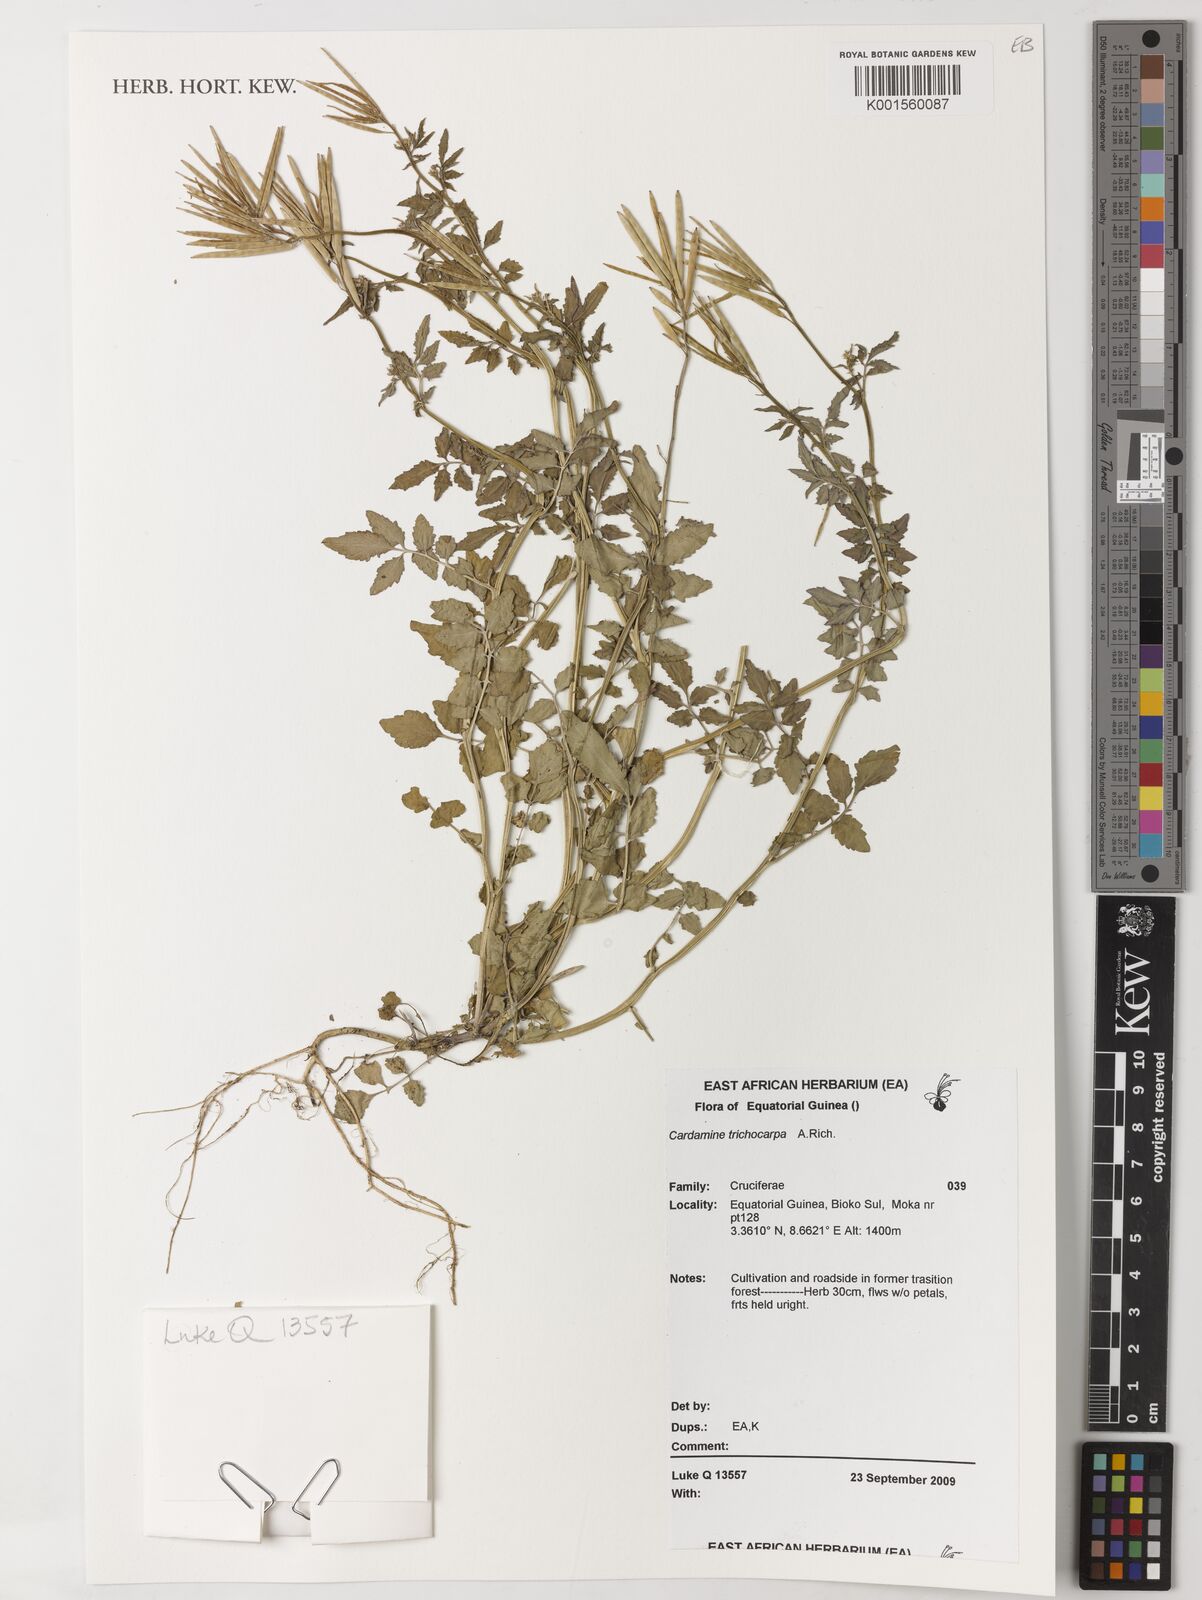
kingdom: Plantae
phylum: Tracheophyta
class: Magnoliopsida
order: Brassicales
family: Brassicaceae
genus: Cardamine
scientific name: Cardamine trichocarpa
